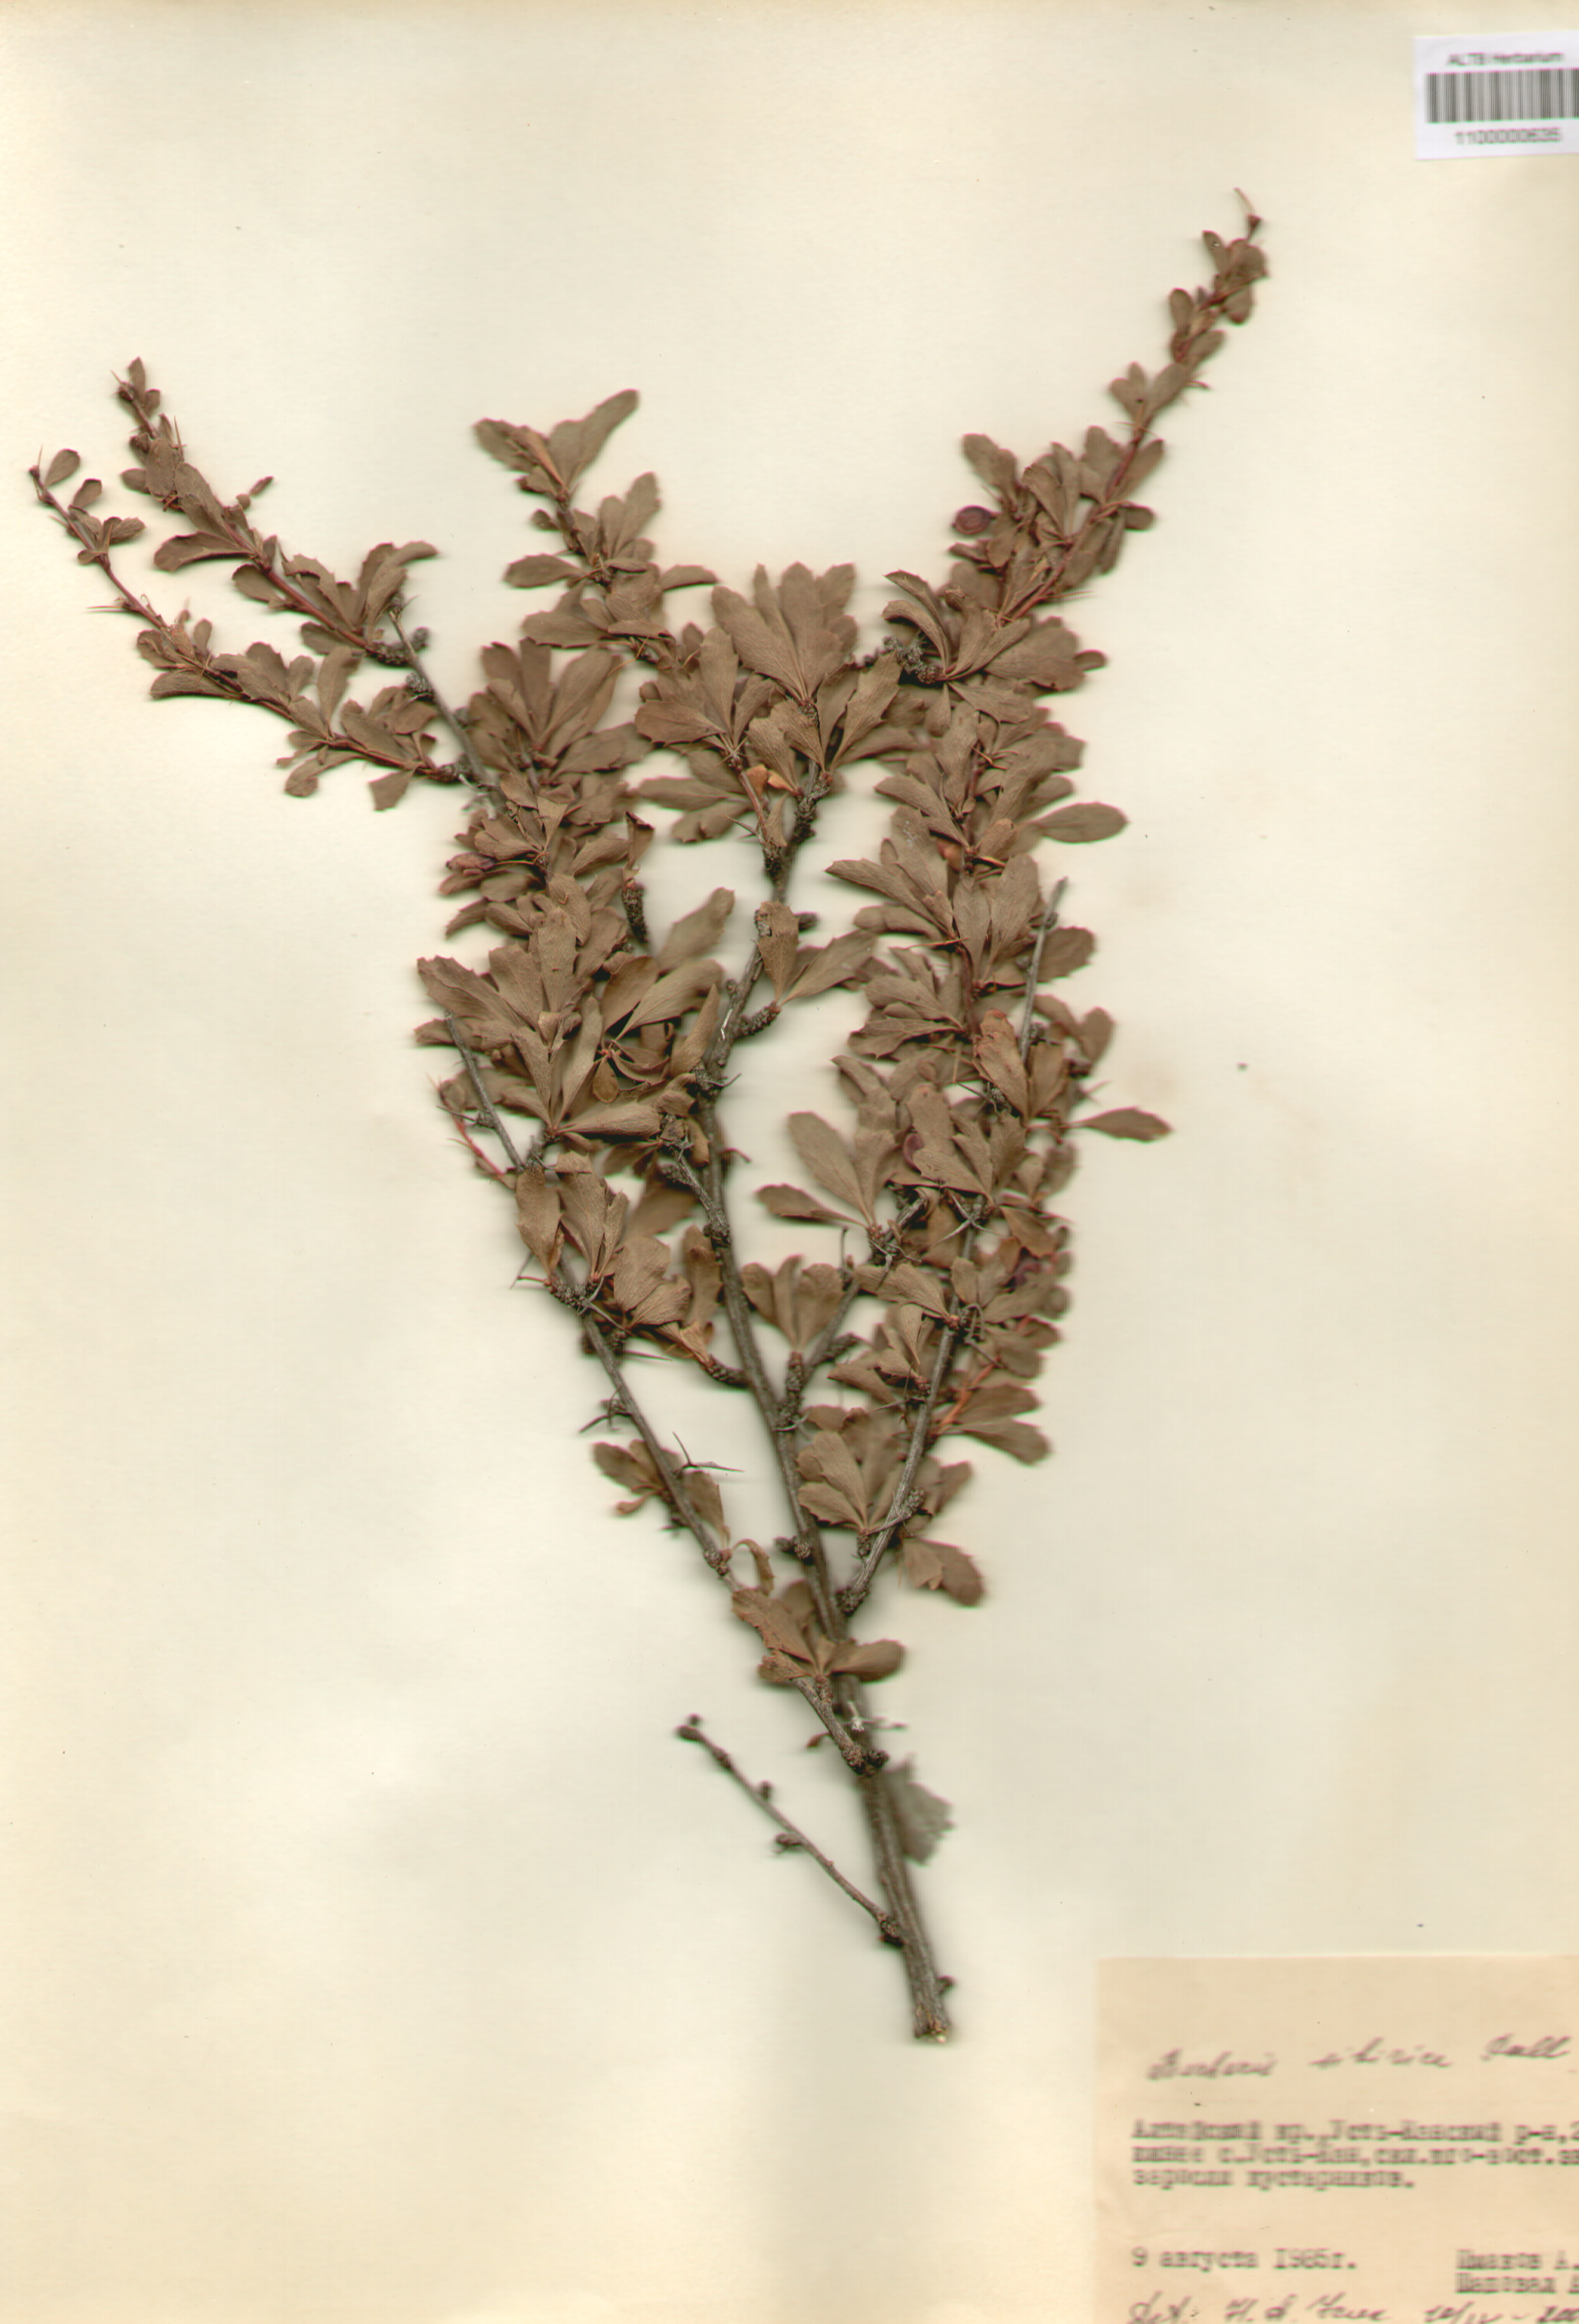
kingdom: Plantae
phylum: Tracheophyta
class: Magnoliopsida
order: Ranunculales
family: Berberidaceae
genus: Berberis
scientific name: Berberis sibirica
